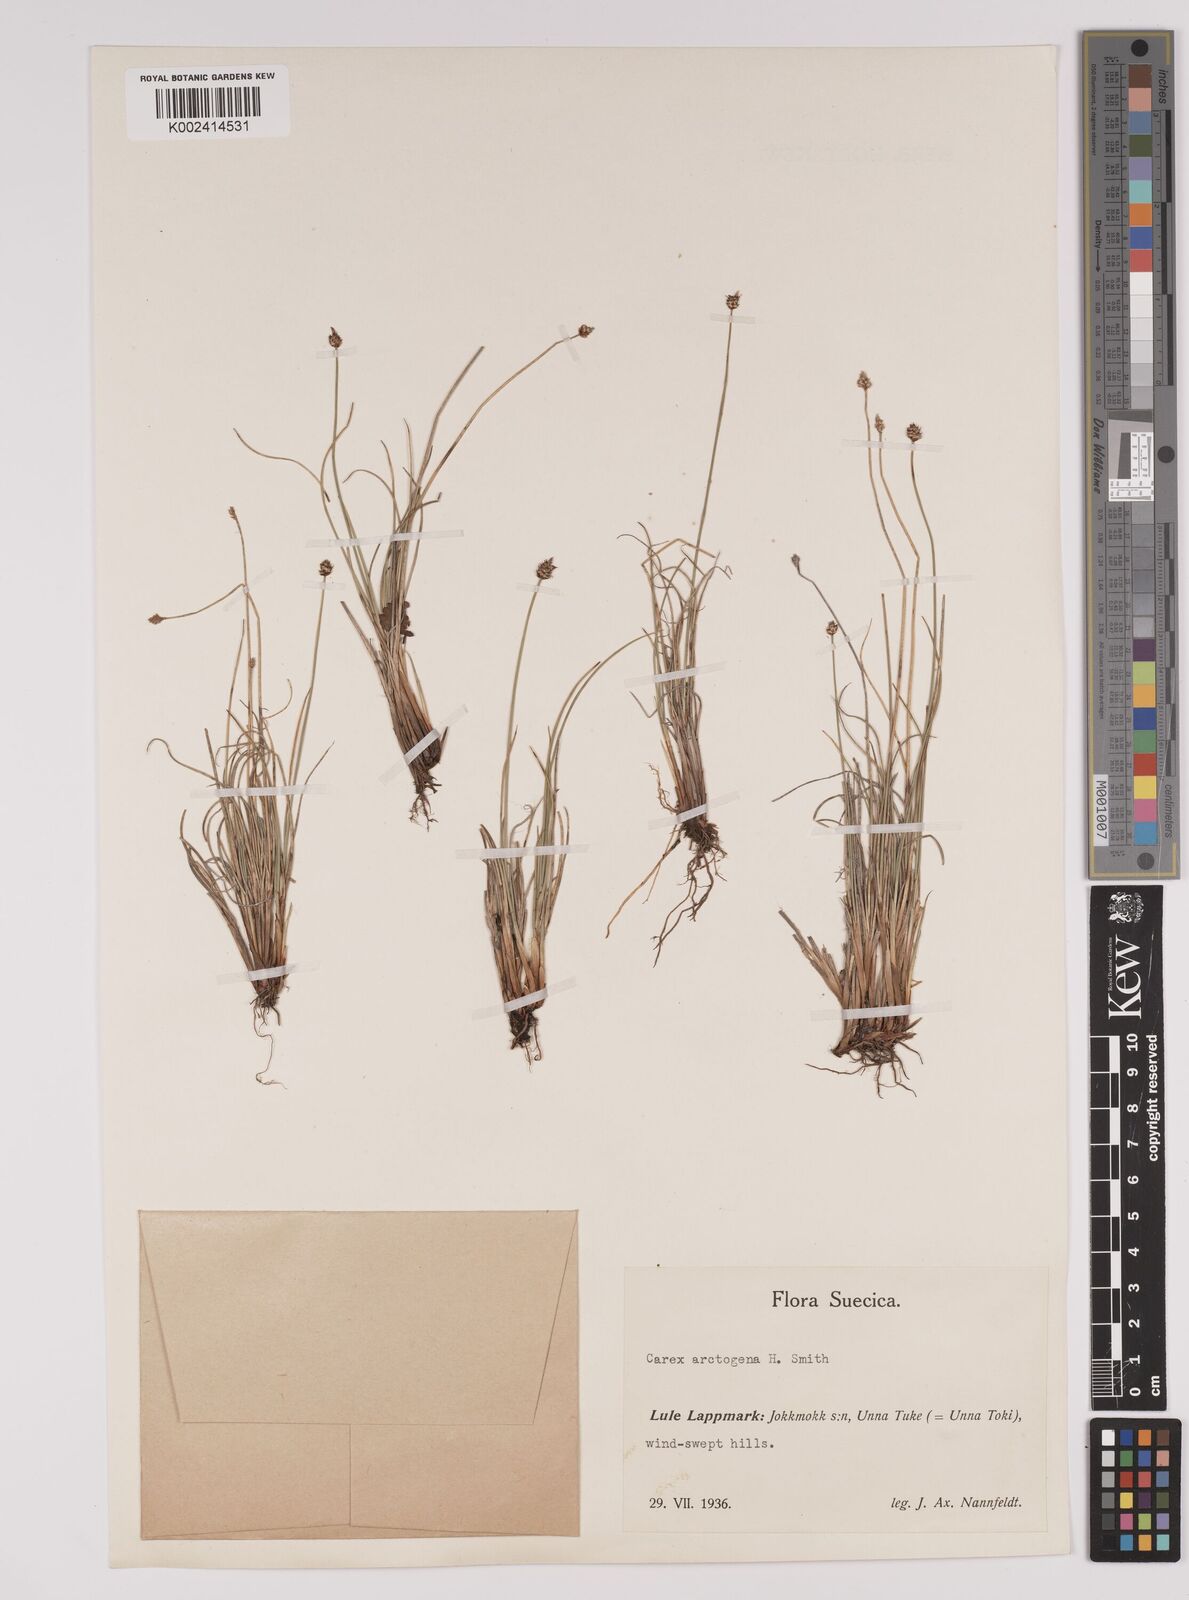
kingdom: Plantae
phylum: Tracheophyta
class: Liliopsida
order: Poales
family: Cyperaceae
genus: Carex
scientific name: Carex arctogena
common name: Black sedge
